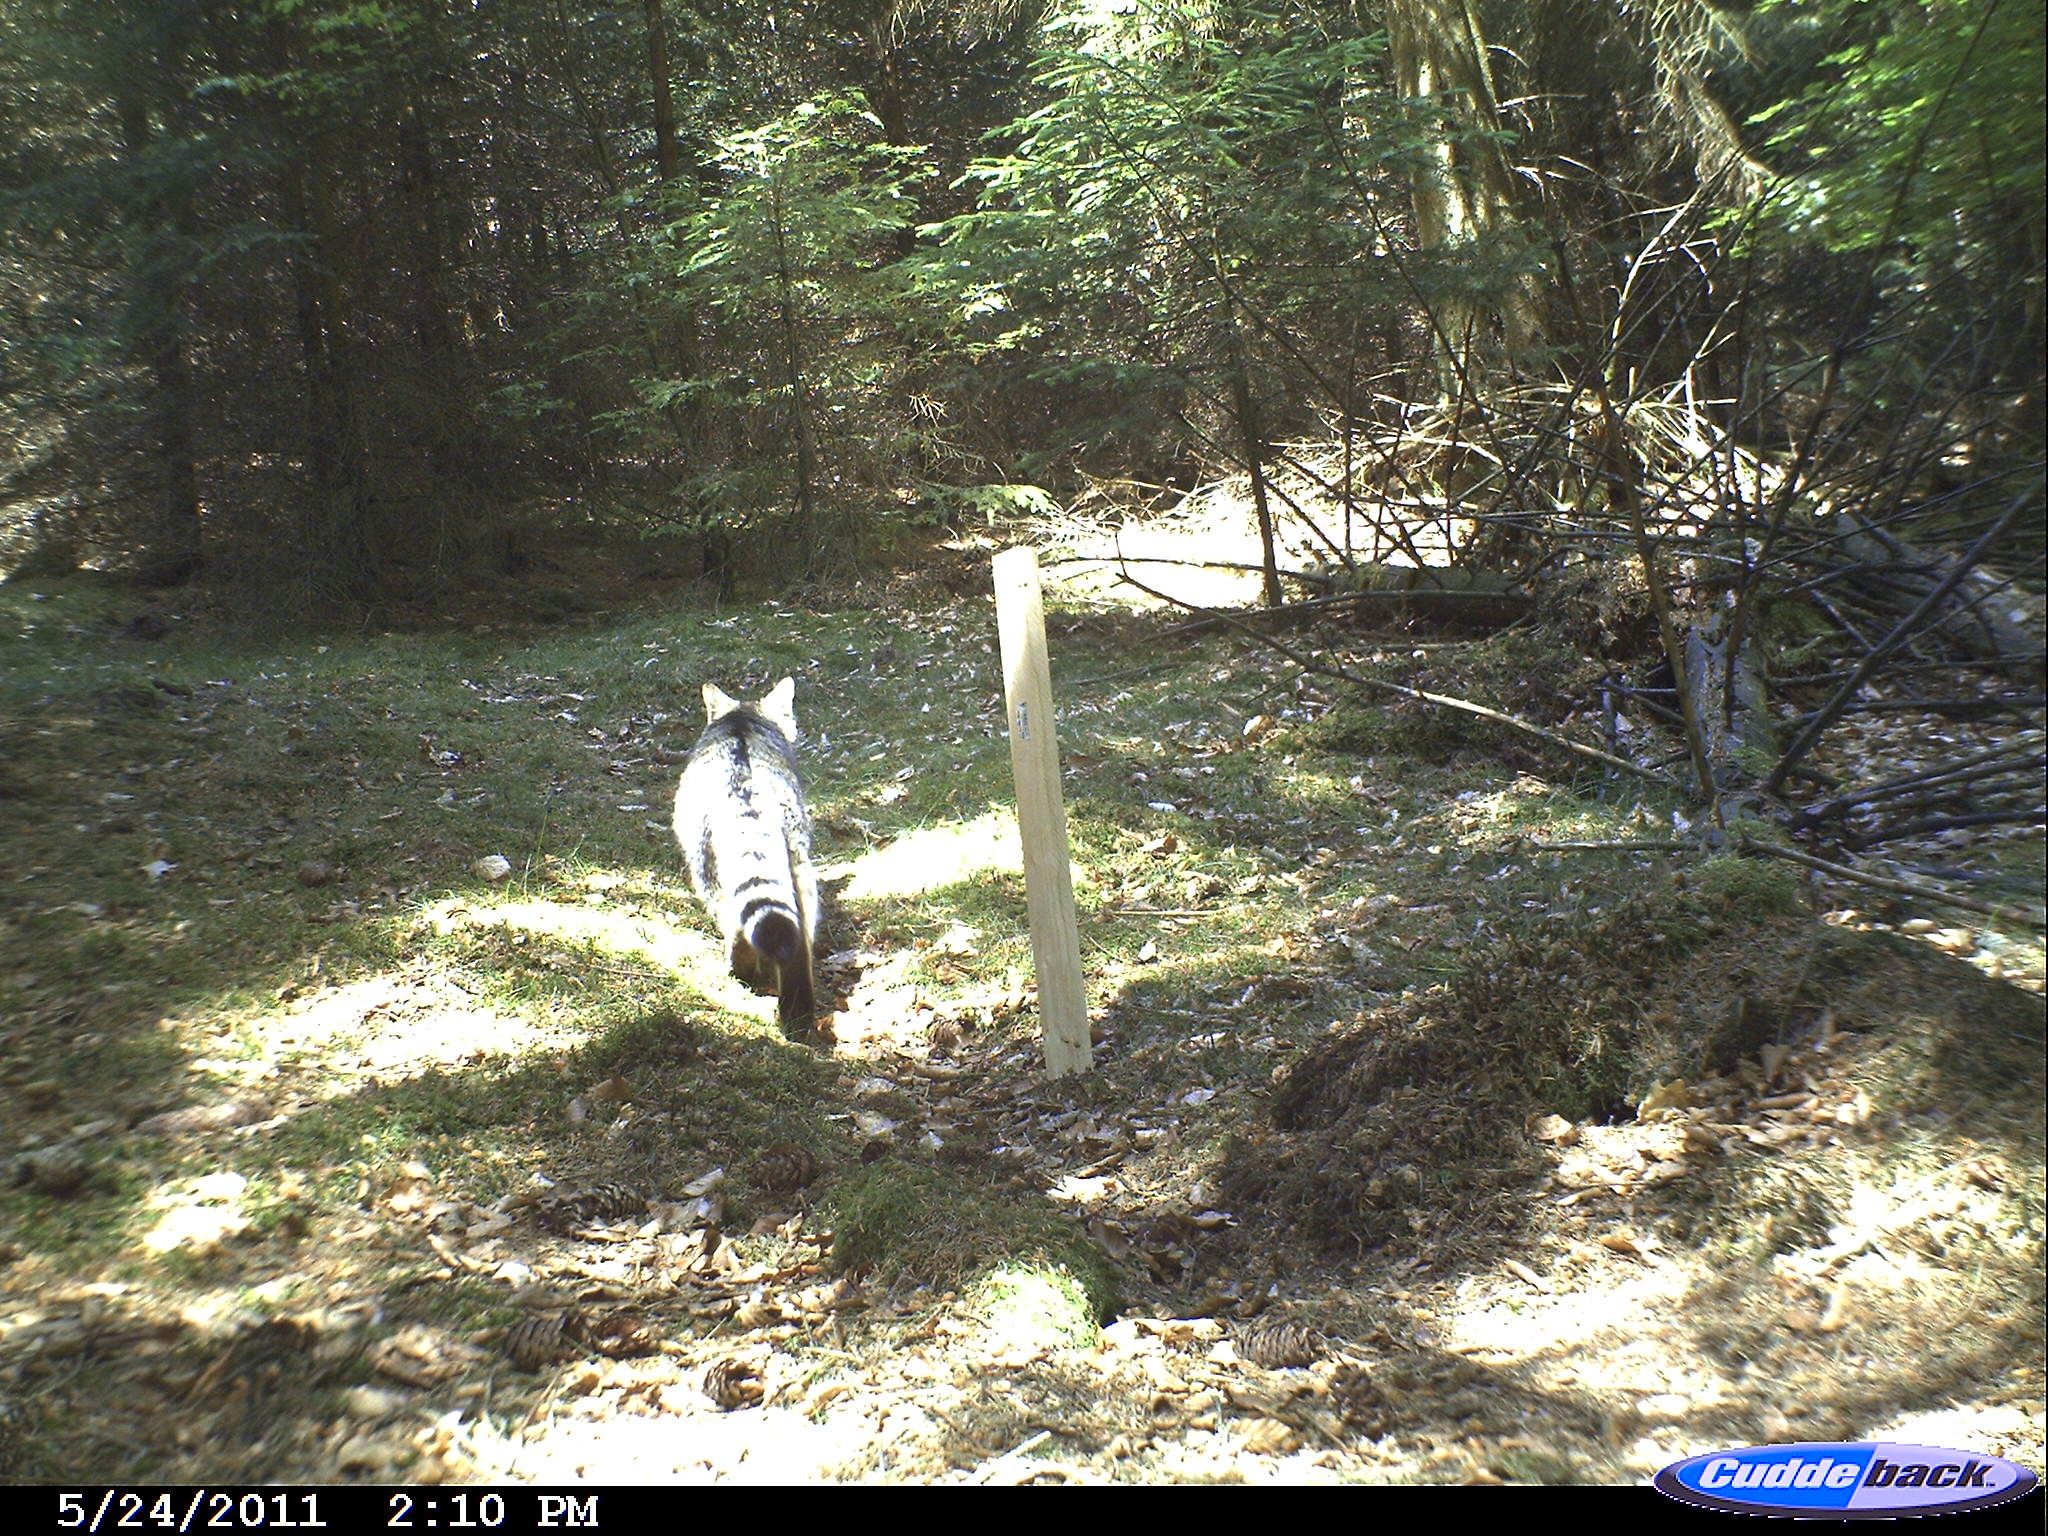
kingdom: Animalia
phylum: Chordata
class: Mammalia
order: Carnivora
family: Felidae
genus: Felis
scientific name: Felis silvestris
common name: Wildcat
